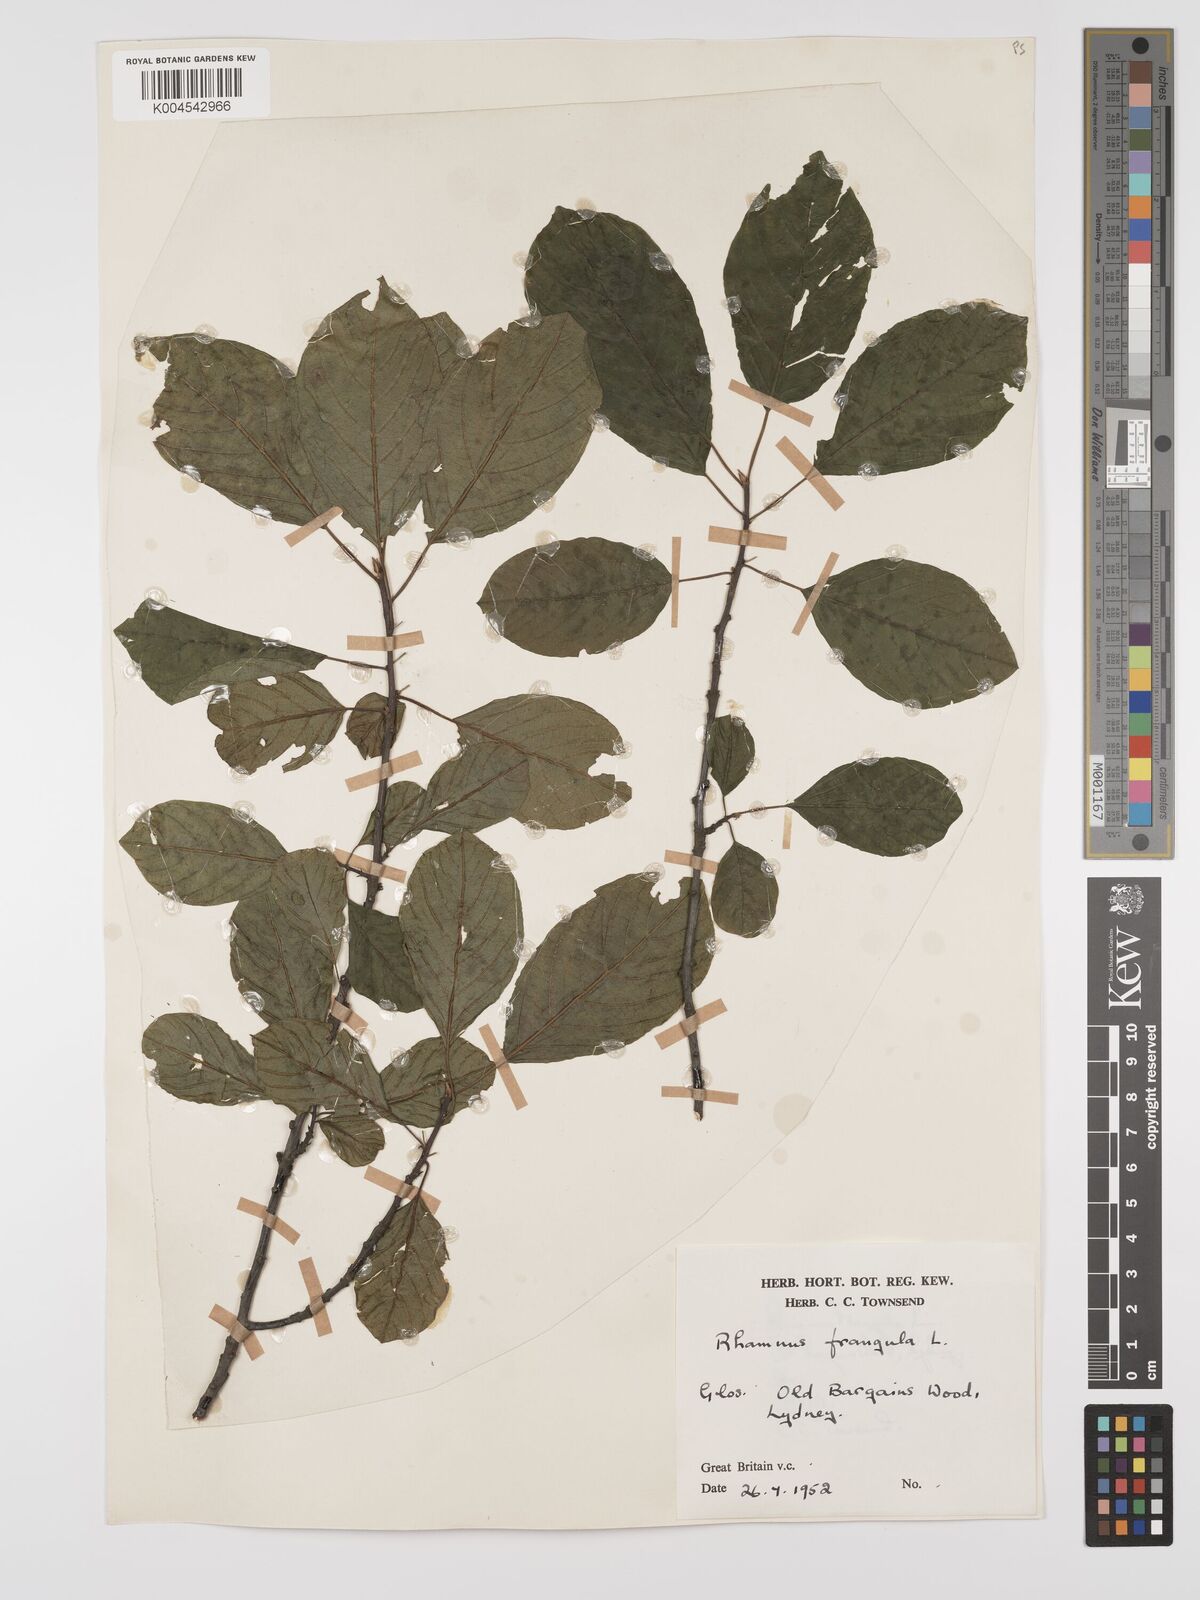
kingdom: Plantae
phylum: Tracheophyta
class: Magnoliopsida
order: Rosales
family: Rhamnaceae
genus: Frangula
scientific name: Frangula alnus
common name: Alder buckthorn
